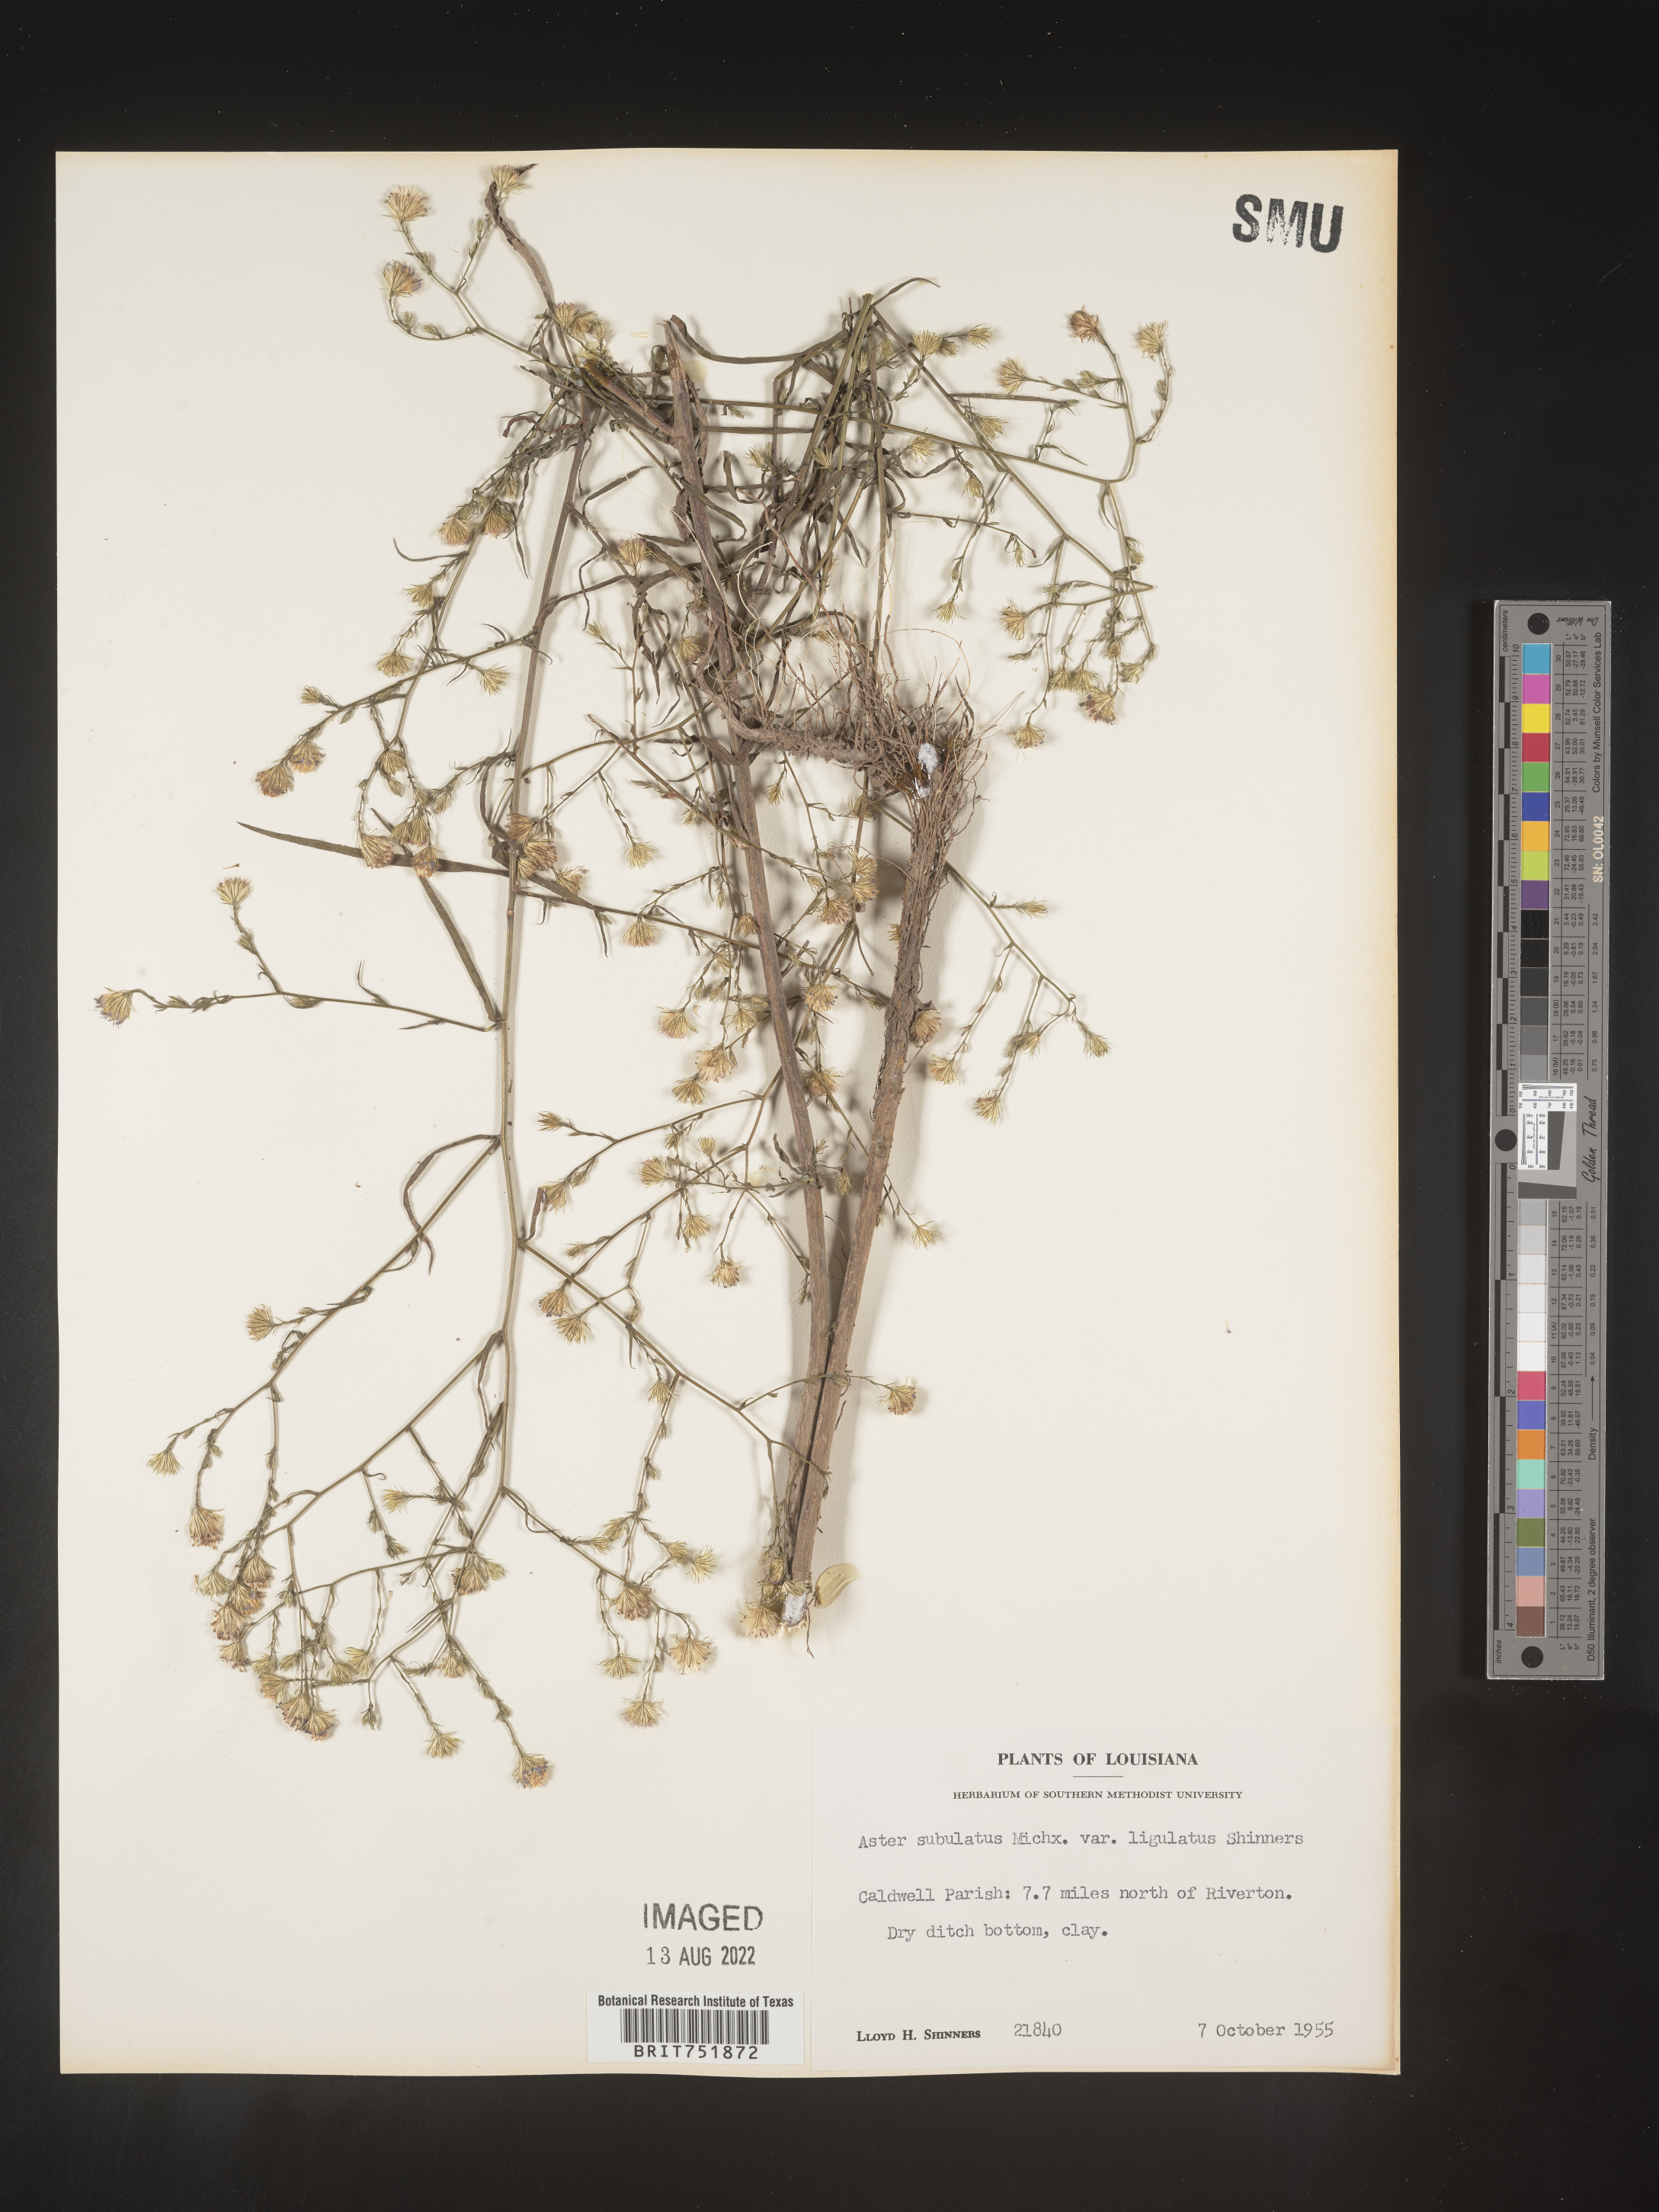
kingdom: Plantae
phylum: Tracheophyta
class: Magnoliopsida
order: Asterales
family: Asteraceae
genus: Symphyotrichum
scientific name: Symphyotrichum divaricatum
